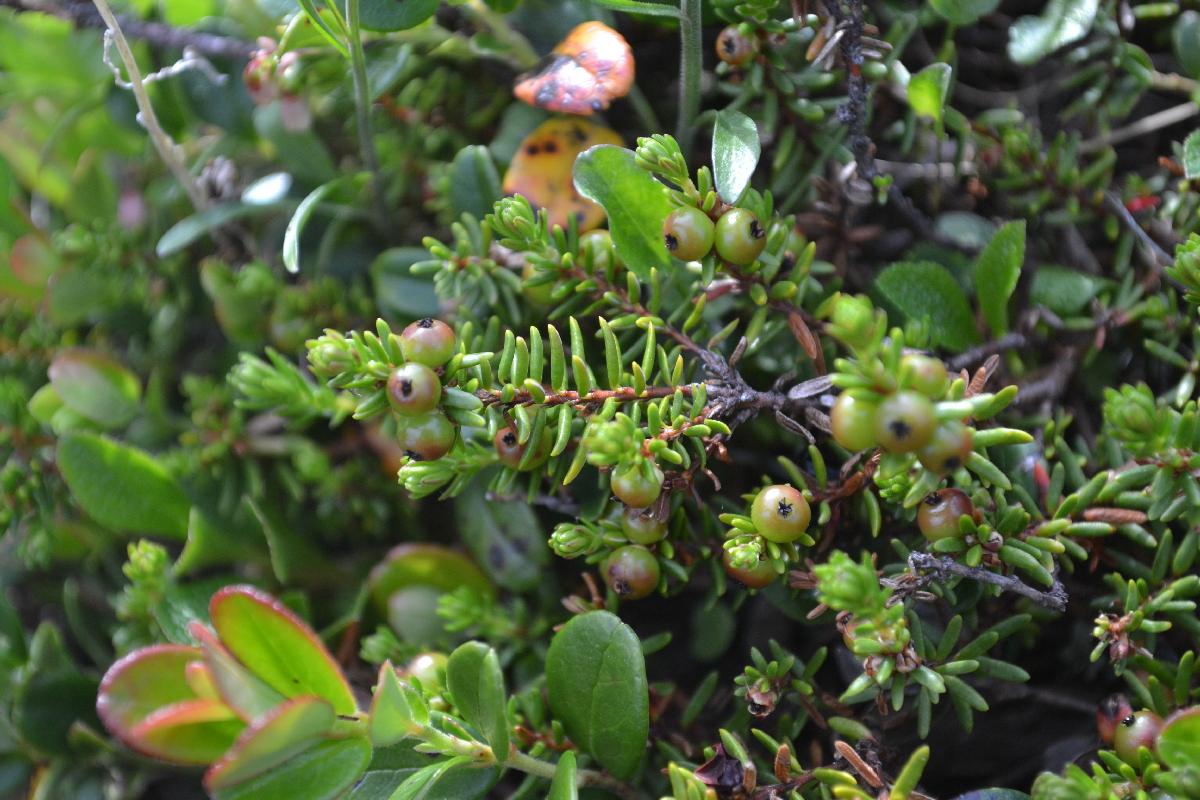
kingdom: Plantae
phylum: Tracheophyta
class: Magnoliopsida
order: Ericales
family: Ericaceae
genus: Empetrum
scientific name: Empetrum nigrum
